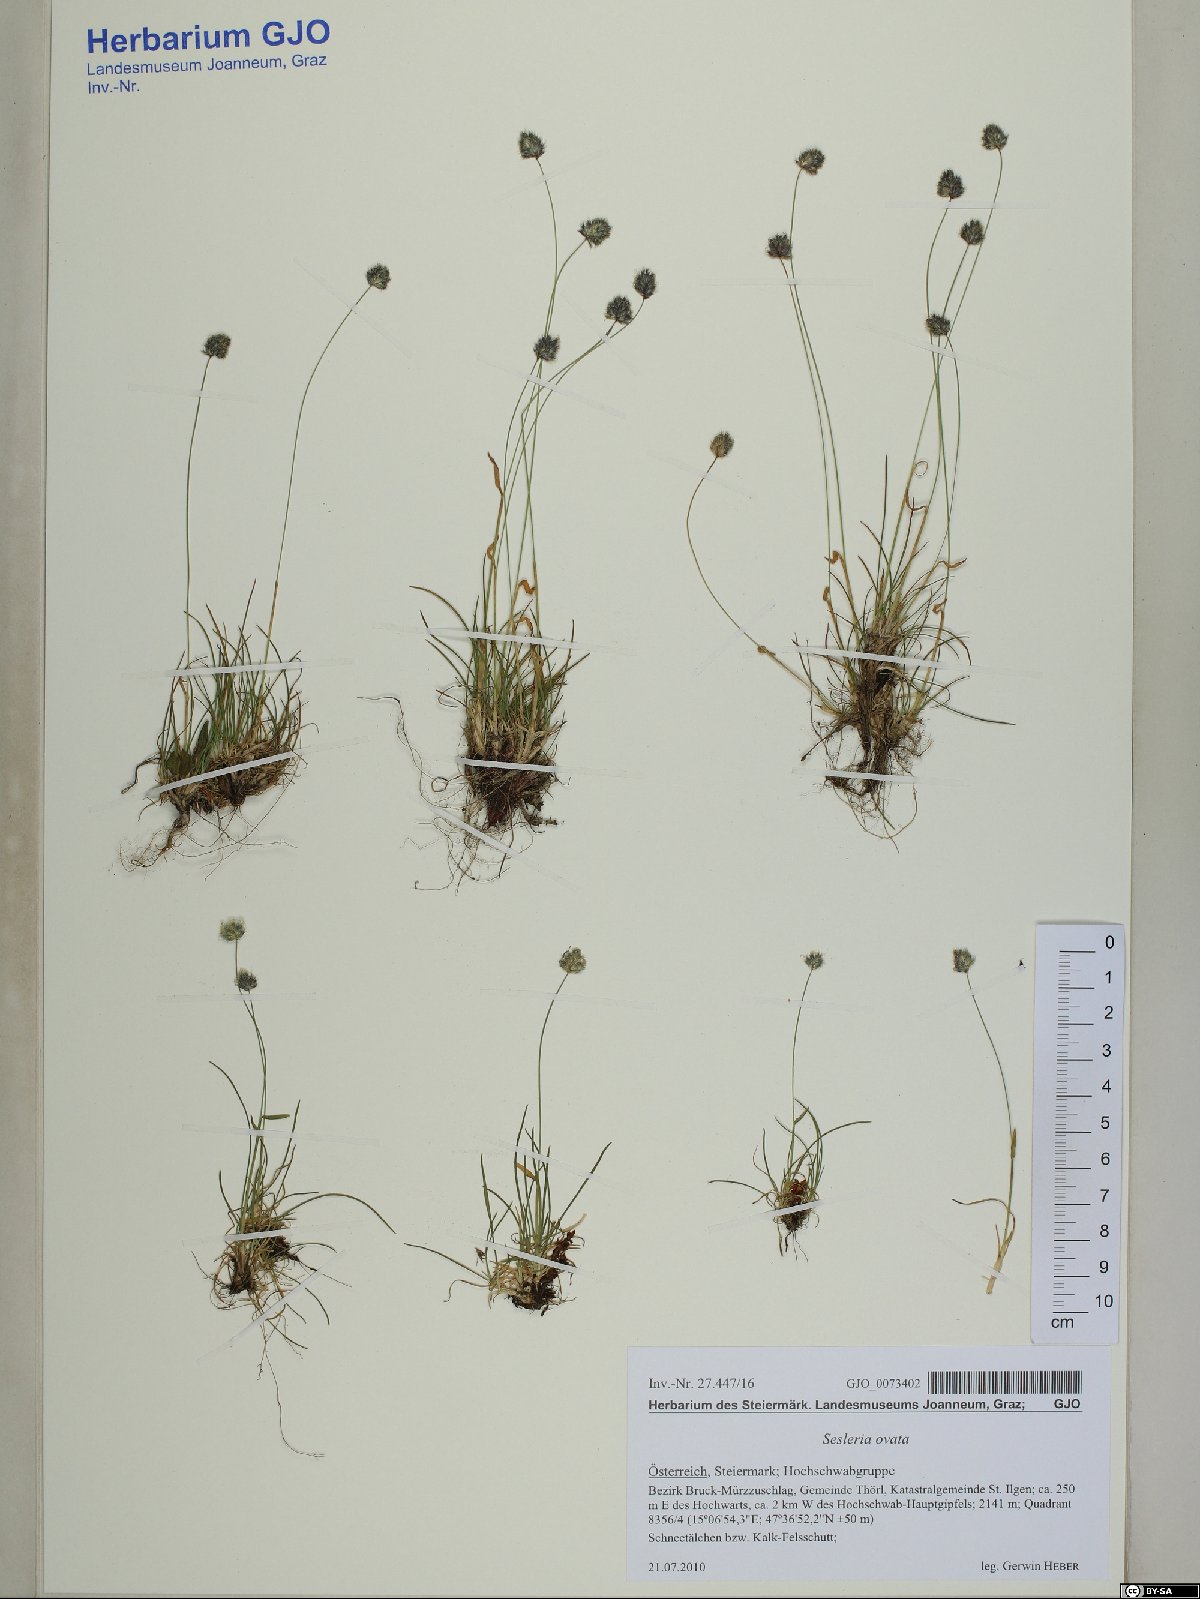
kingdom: Plantae
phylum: Tracheophyta
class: Liliopsida
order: Poales
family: Poaceae
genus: Psilathera
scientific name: Psilathera ovata
